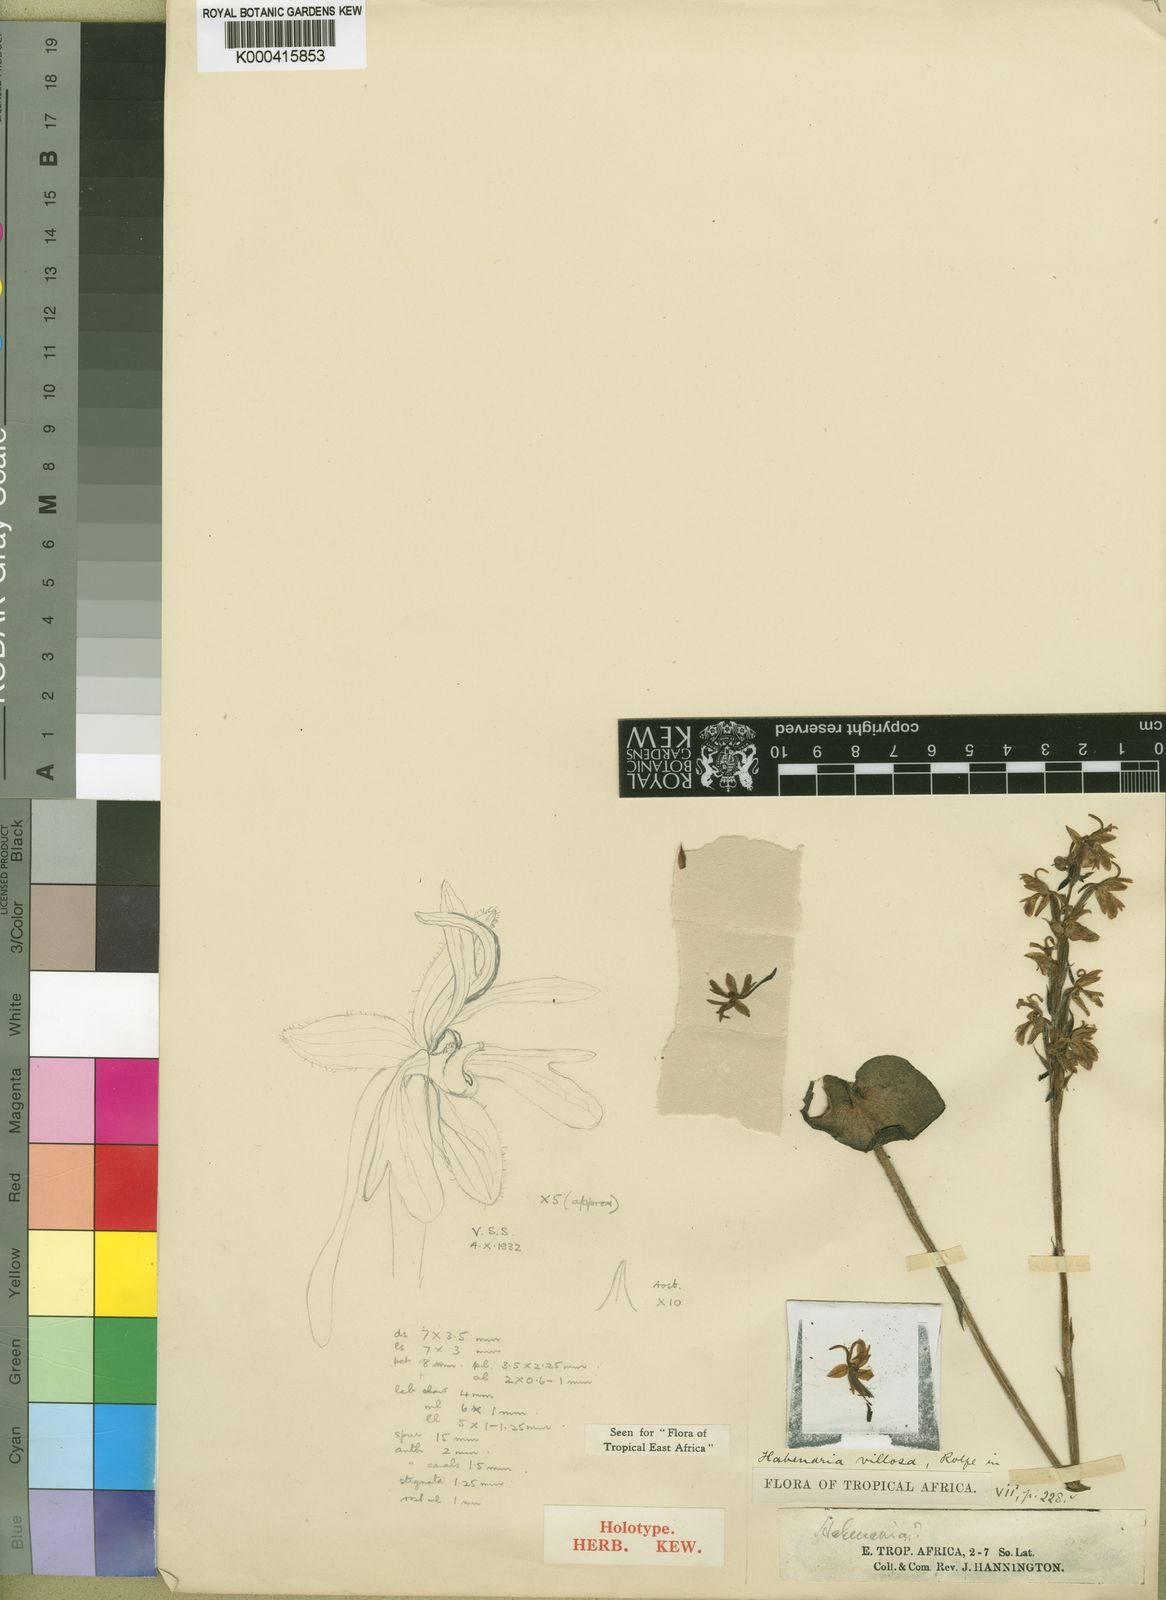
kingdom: Plantae
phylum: Tracheophyta
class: Liliopsida
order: Asparagales
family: Orchidaceae
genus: Habenaria
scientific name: Habenaria villosa
